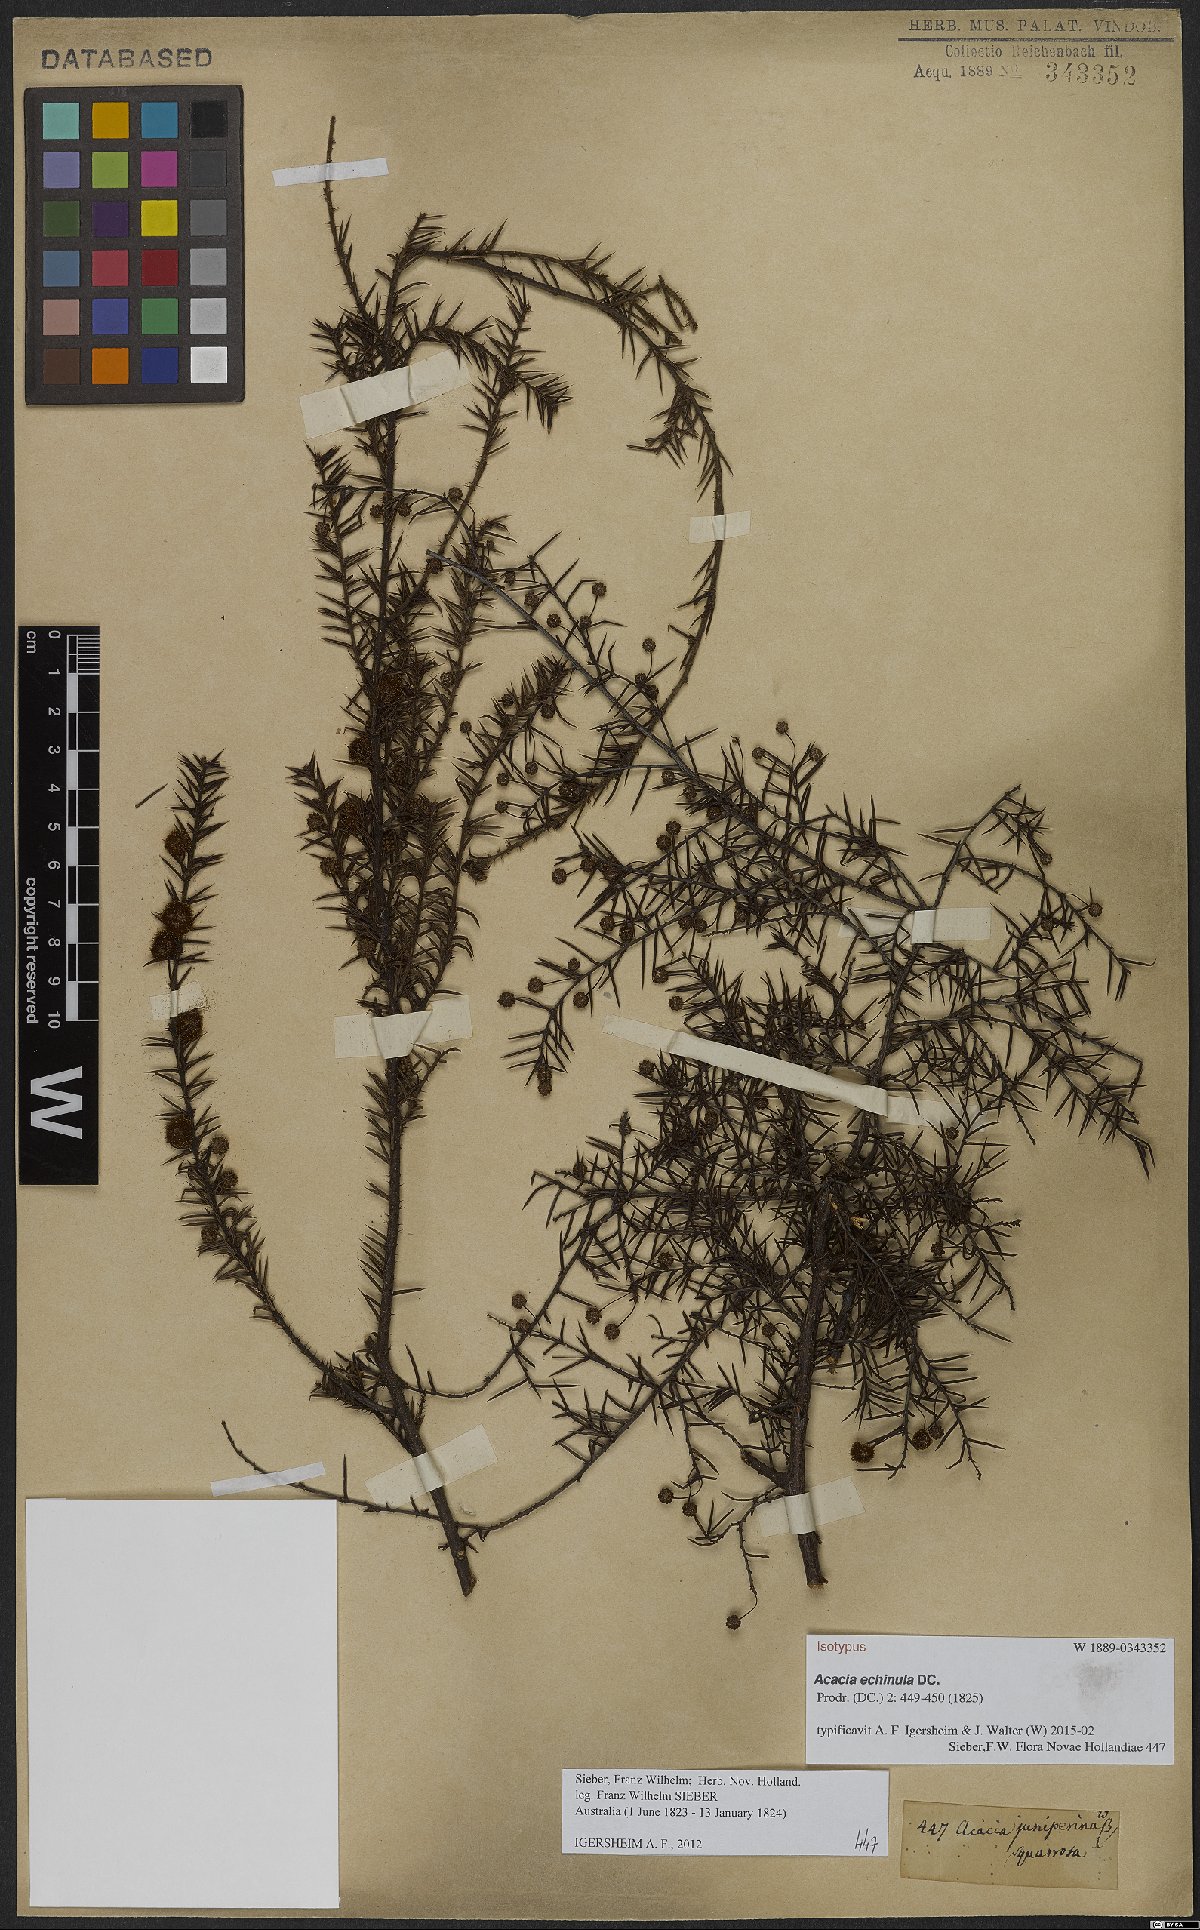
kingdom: Plantae
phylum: Tracheophyta
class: Magnoliopsida
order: Fabales
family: Fabaceae
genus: Acacia
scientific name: Acacia echinula
